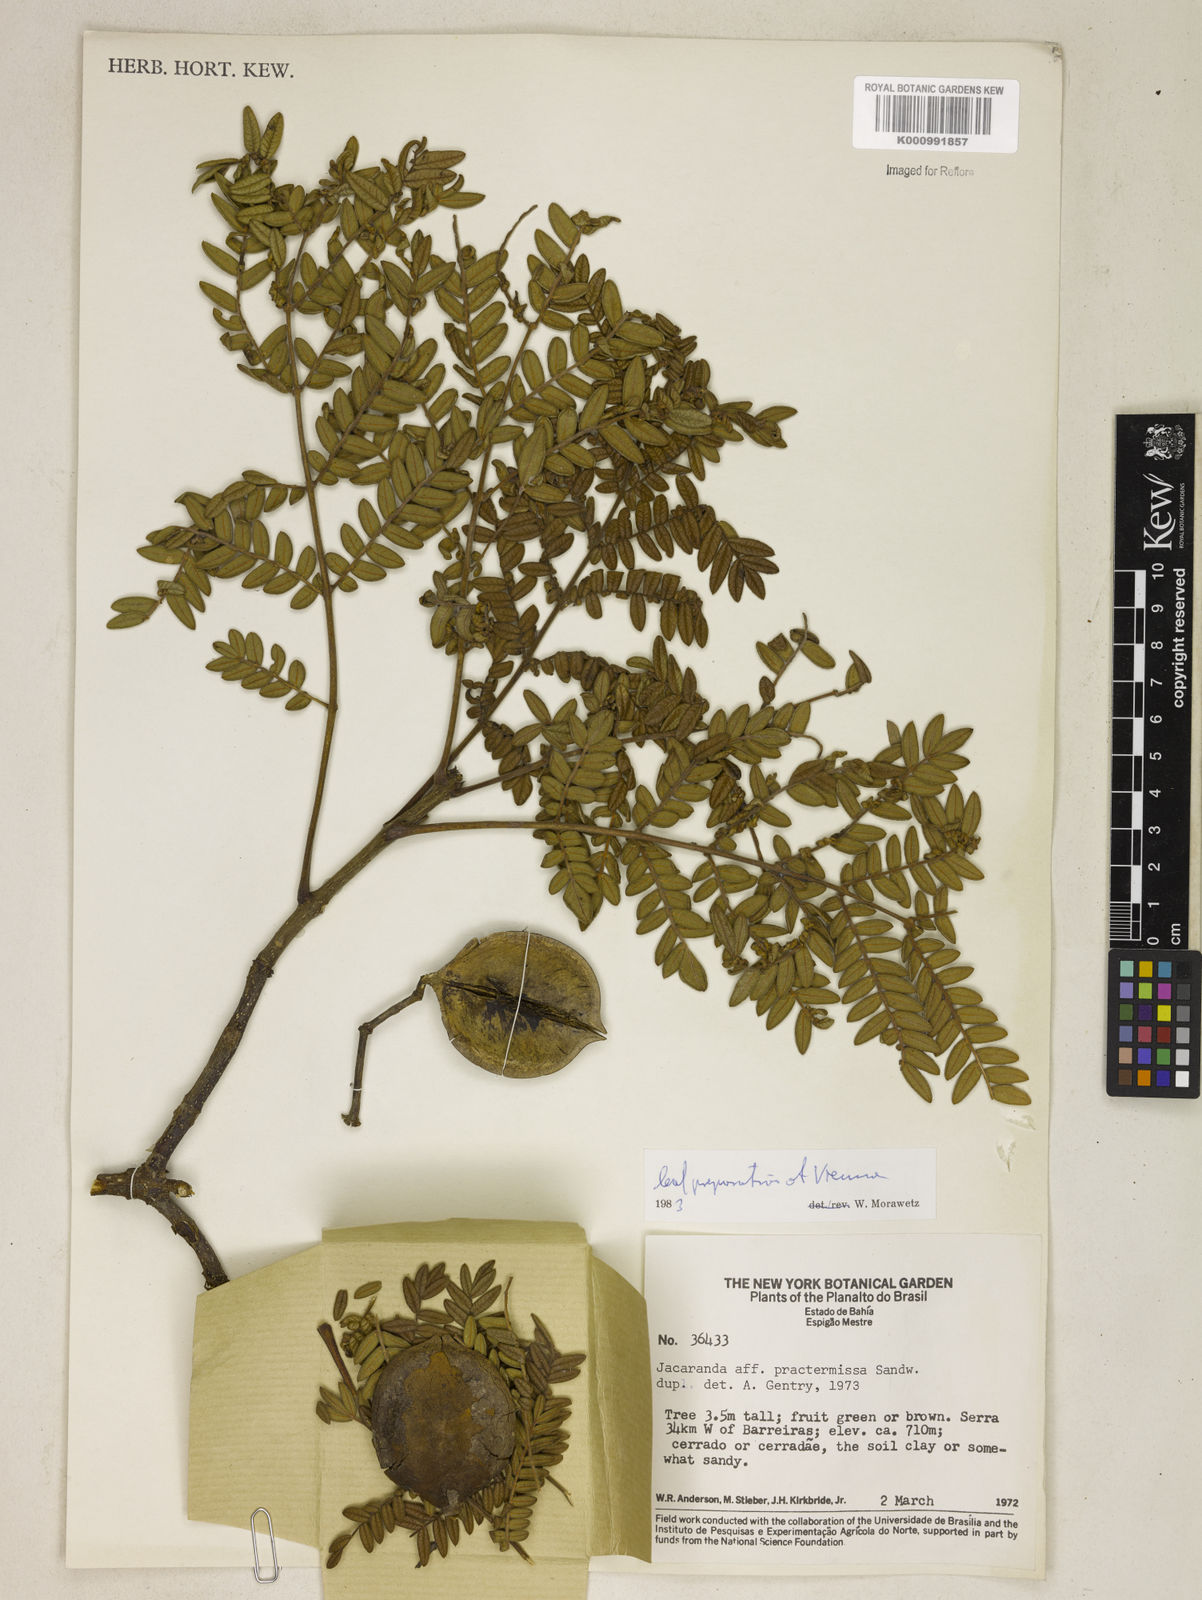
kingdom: Plantae
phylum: Tracheophyta
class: Magnoliopsida
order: Lamiales
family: Bignoniaceae
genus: Jacaranda
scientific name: Jacaranda praetermissa
